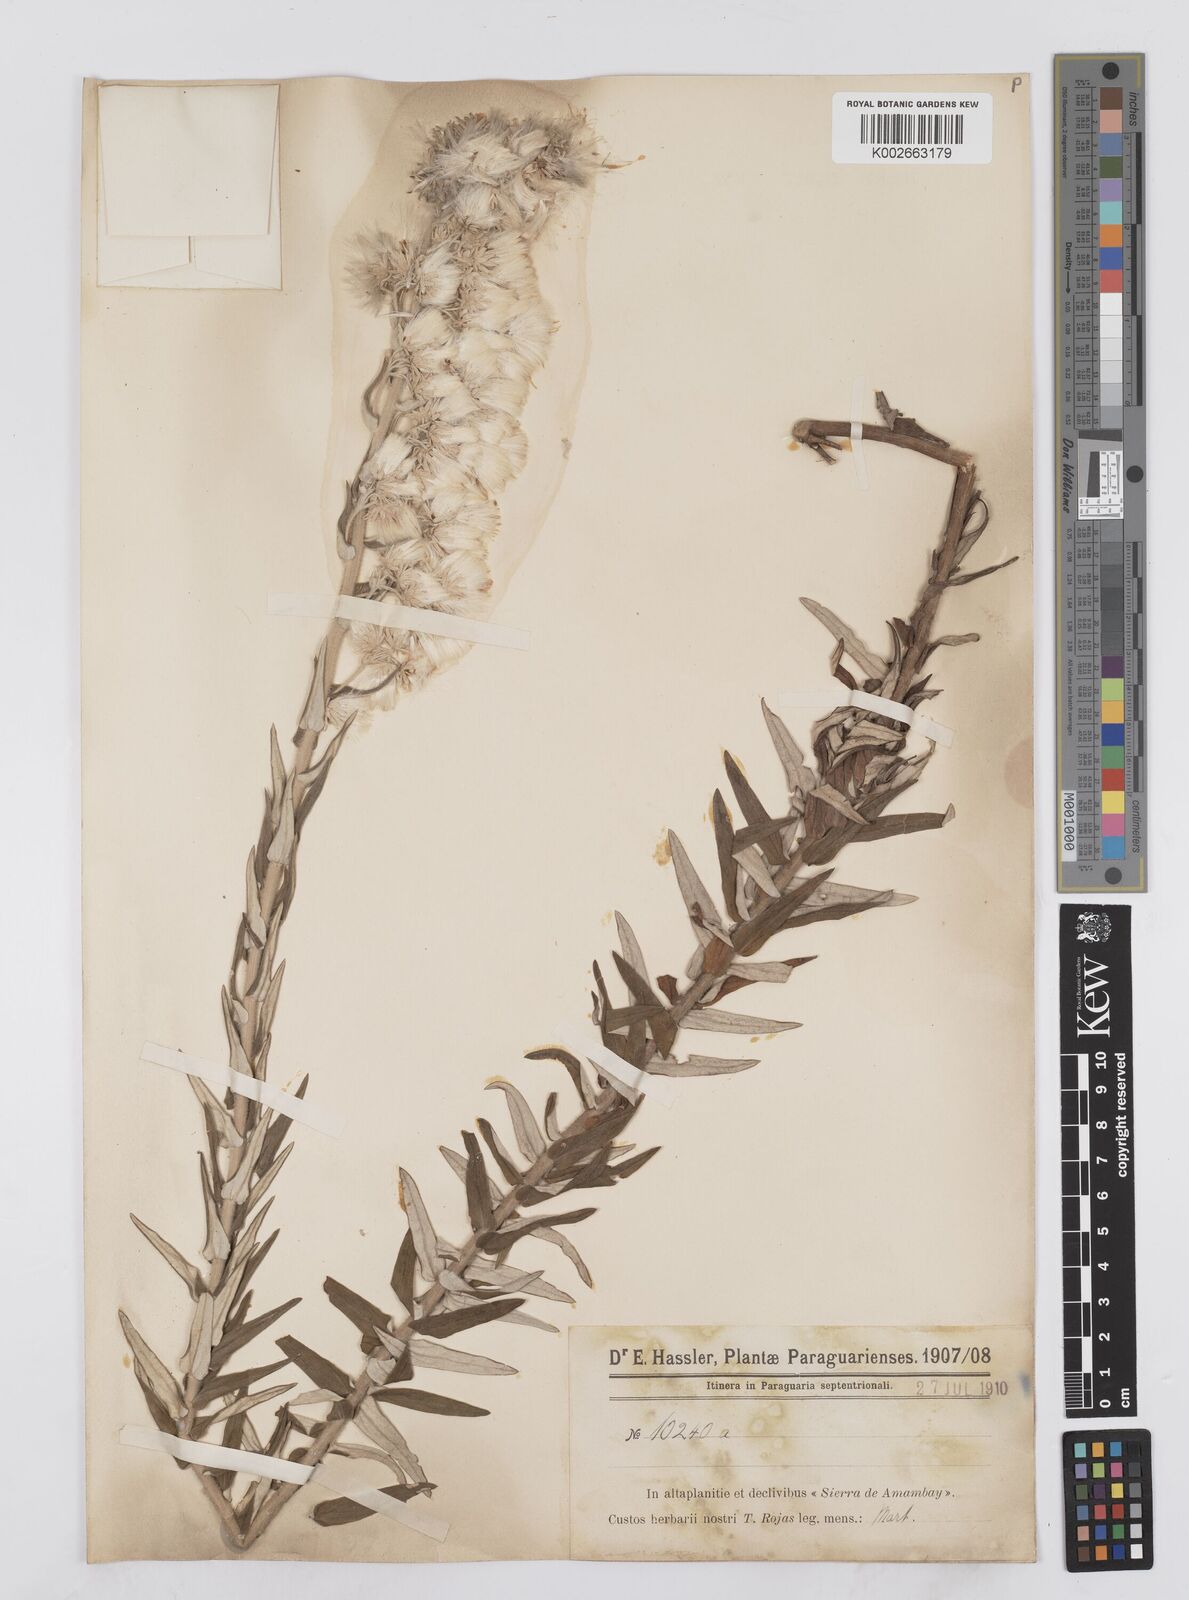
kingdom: Plantae
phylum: Tracheophyta
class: Magnoliopsida
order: Asterales
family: Asteraceae
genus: Baccharis
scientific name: Baccharis helichrysoides
